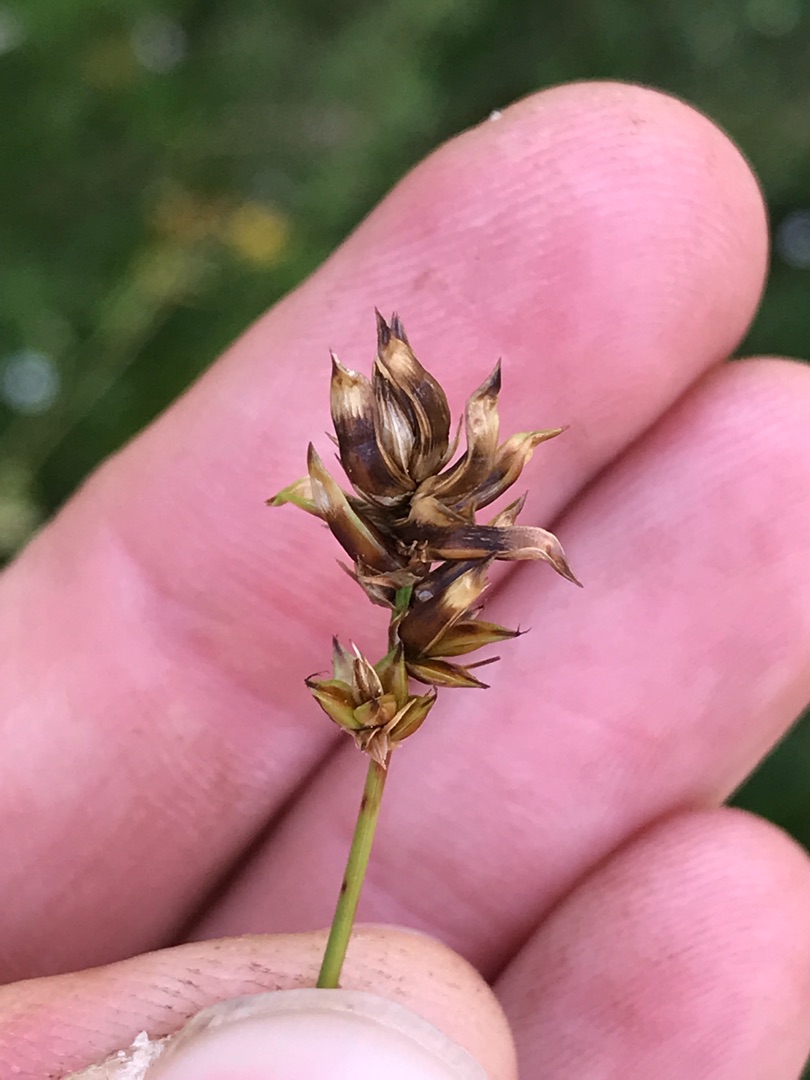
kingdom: Animalia
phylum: Arthropoda
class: Insecta
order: Diptera
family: Cecidomyiidae
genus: Wachtliella
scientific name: Wachtliella caricis
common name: Frugthylstergalmyg
